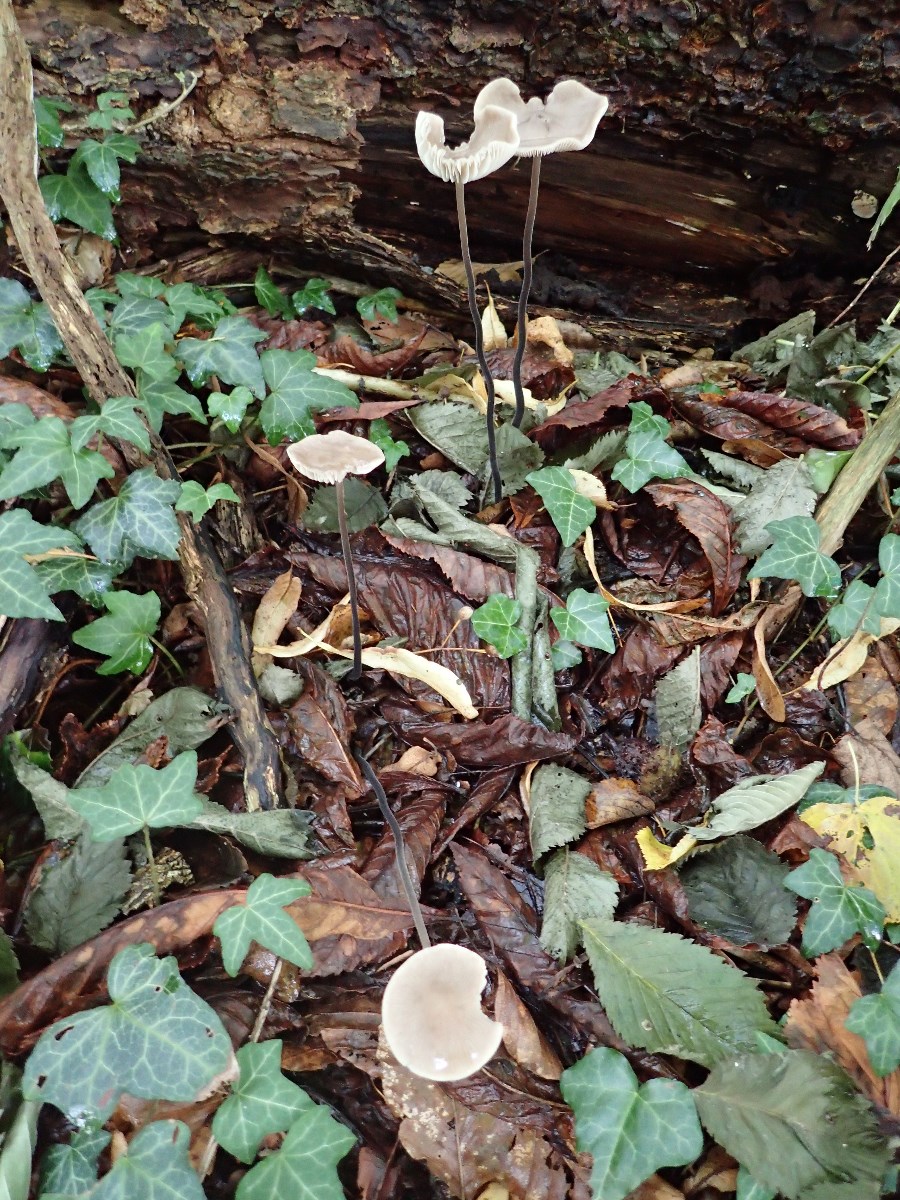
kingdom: Fungi
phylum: Basidiomycota
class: Agaricomycetes
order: Agaricales
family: Omphalotaceae
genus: Mycetinis
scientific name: Mycetinis alliaceus
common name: stor løghat
